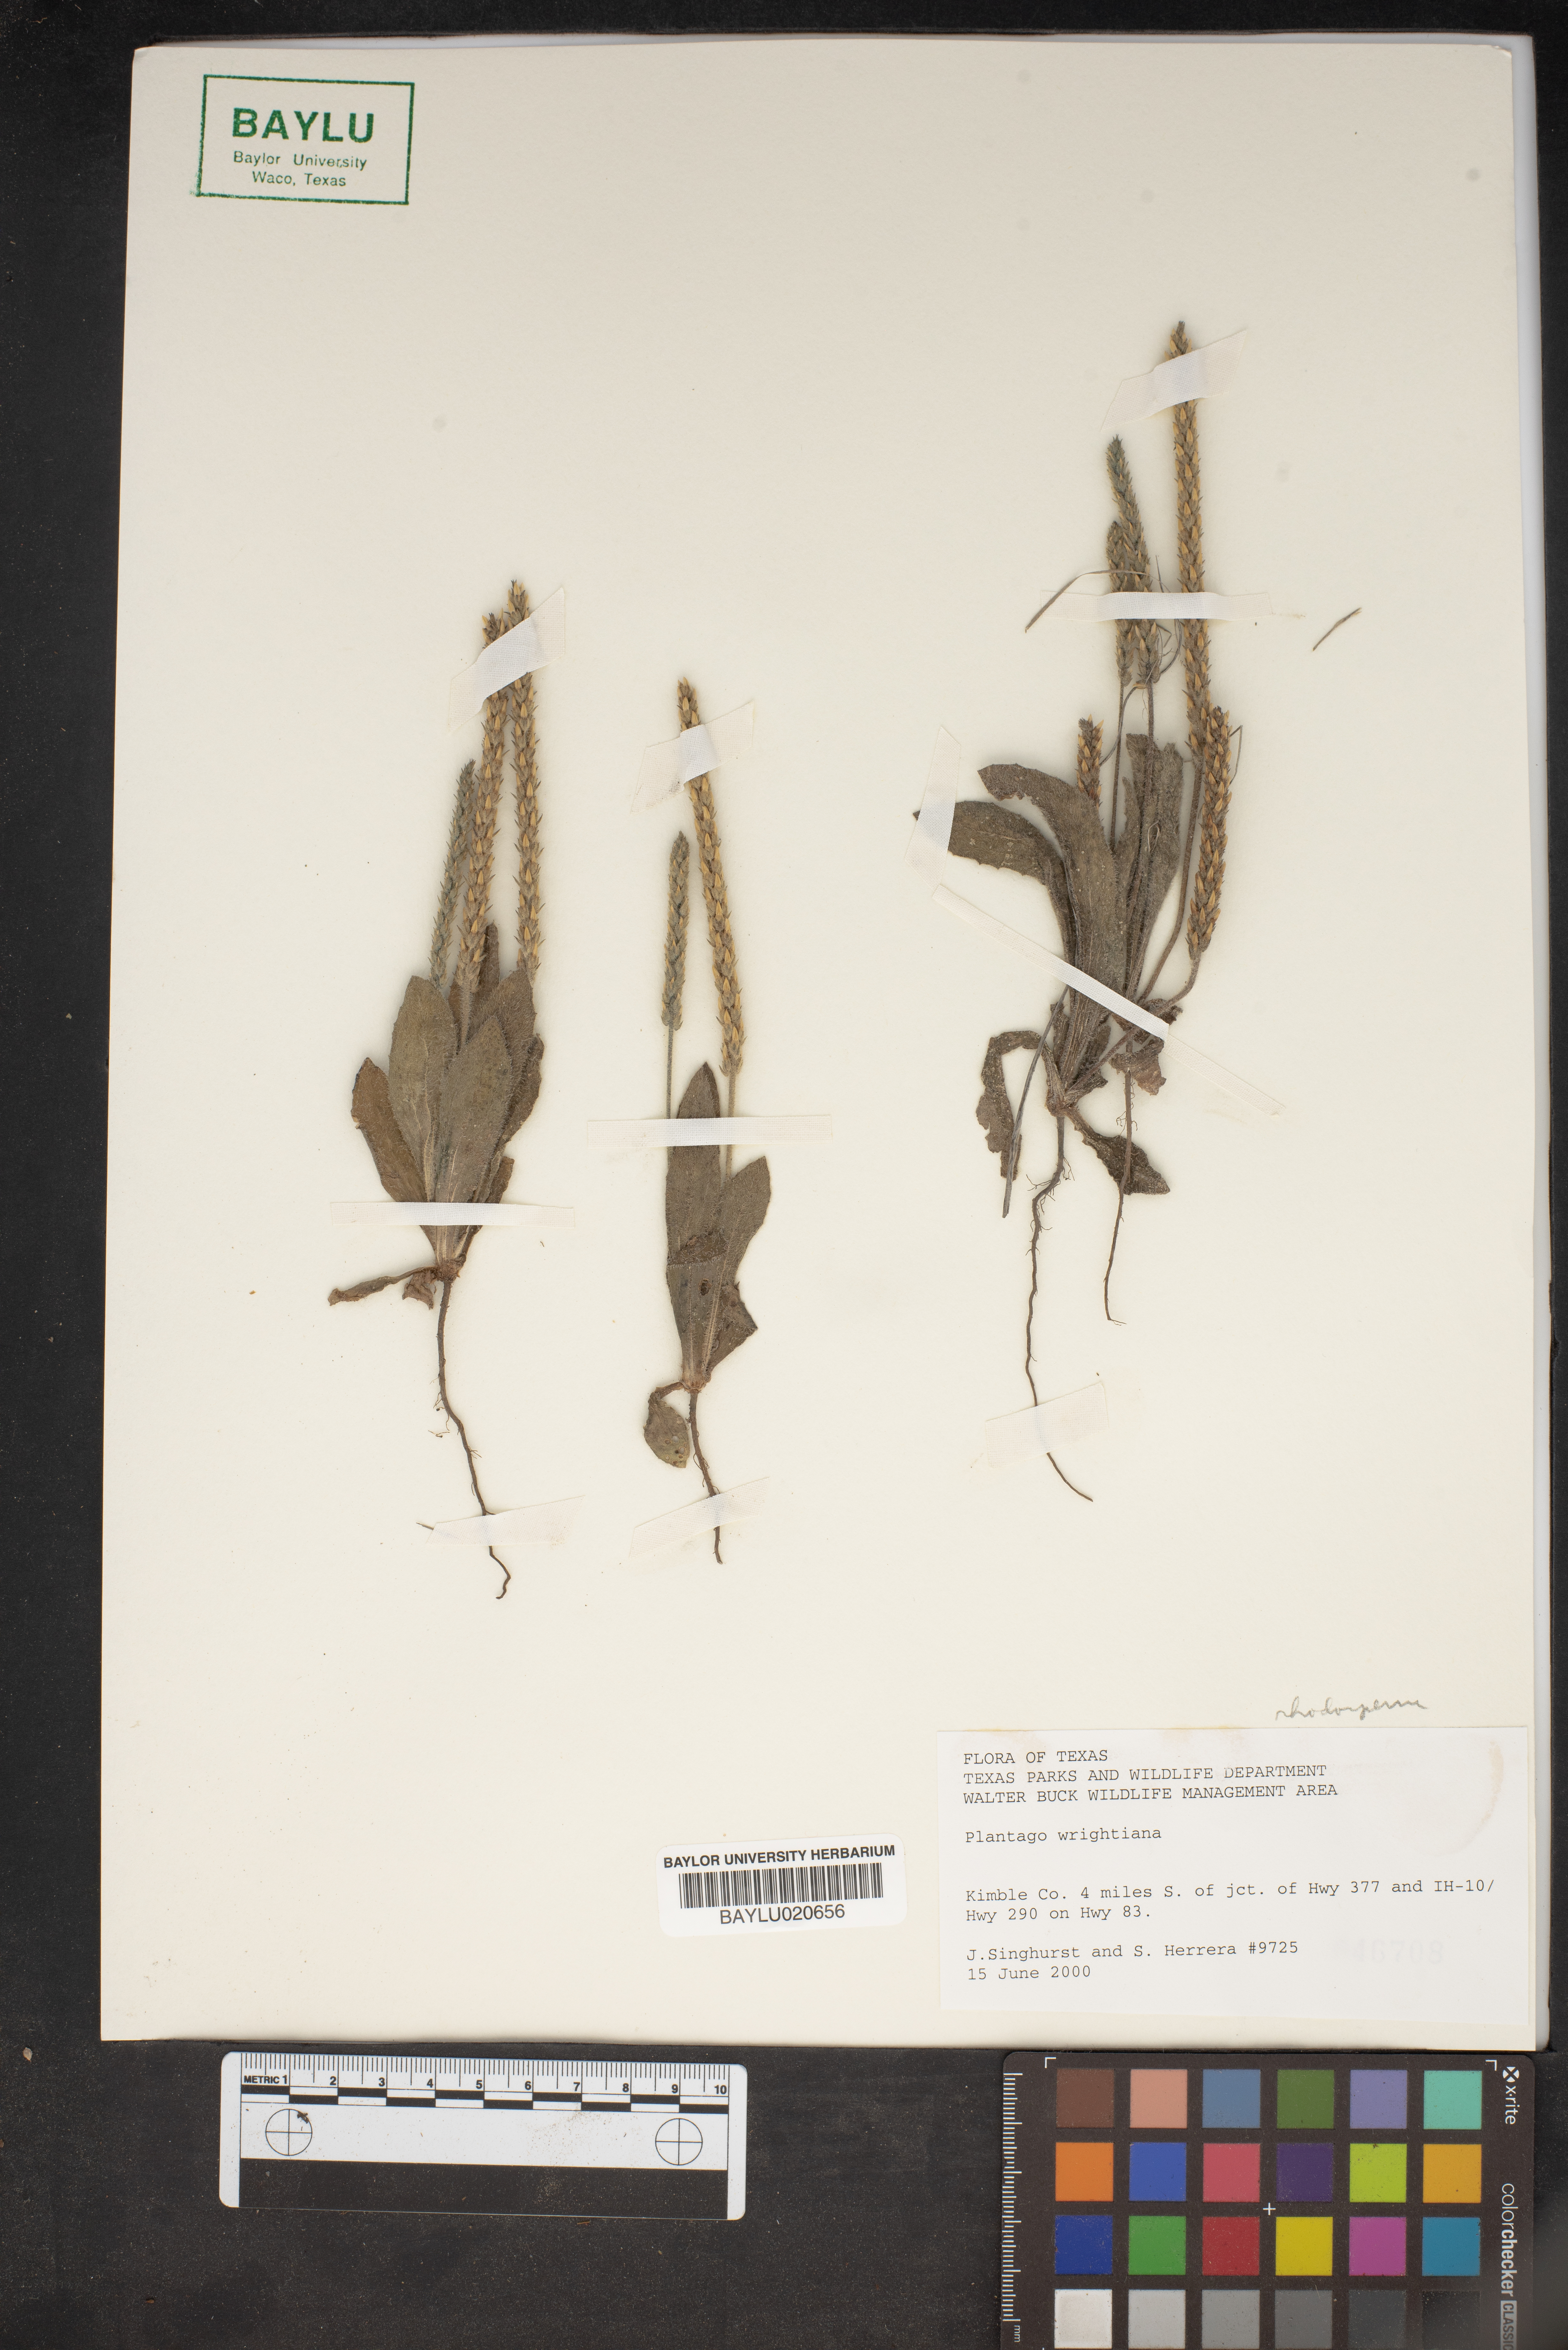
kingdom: Plantae
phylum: Tracheophyta
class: Magnoliopsida
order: Lamiales
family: Plantaginaceae
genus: Plantago
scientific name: Plantago wrightiana
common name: Wright's plantain
